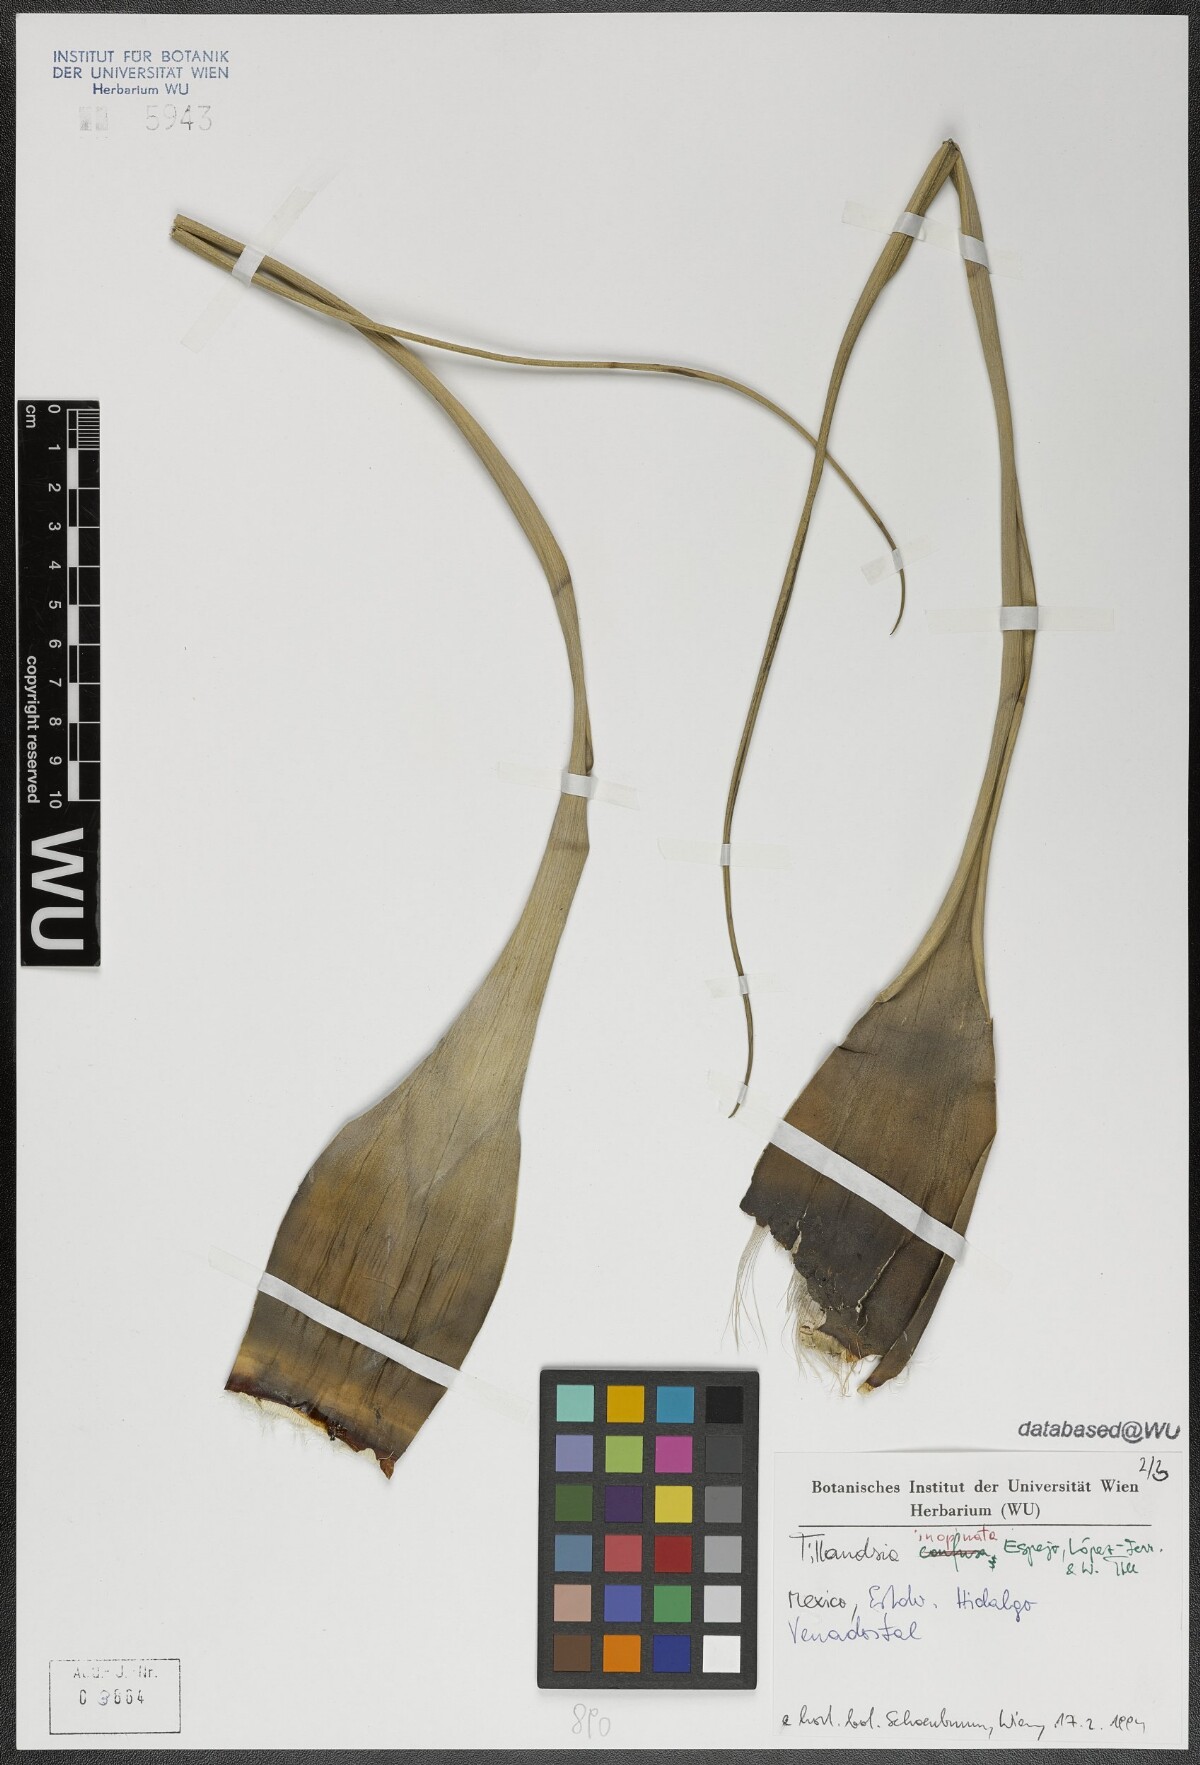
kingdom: Plantae
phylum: Tracheophyta
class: Liliopsida
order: Poales
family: Bromeliaceae
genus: Tillandsia
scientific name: Tillandsia inopinata
